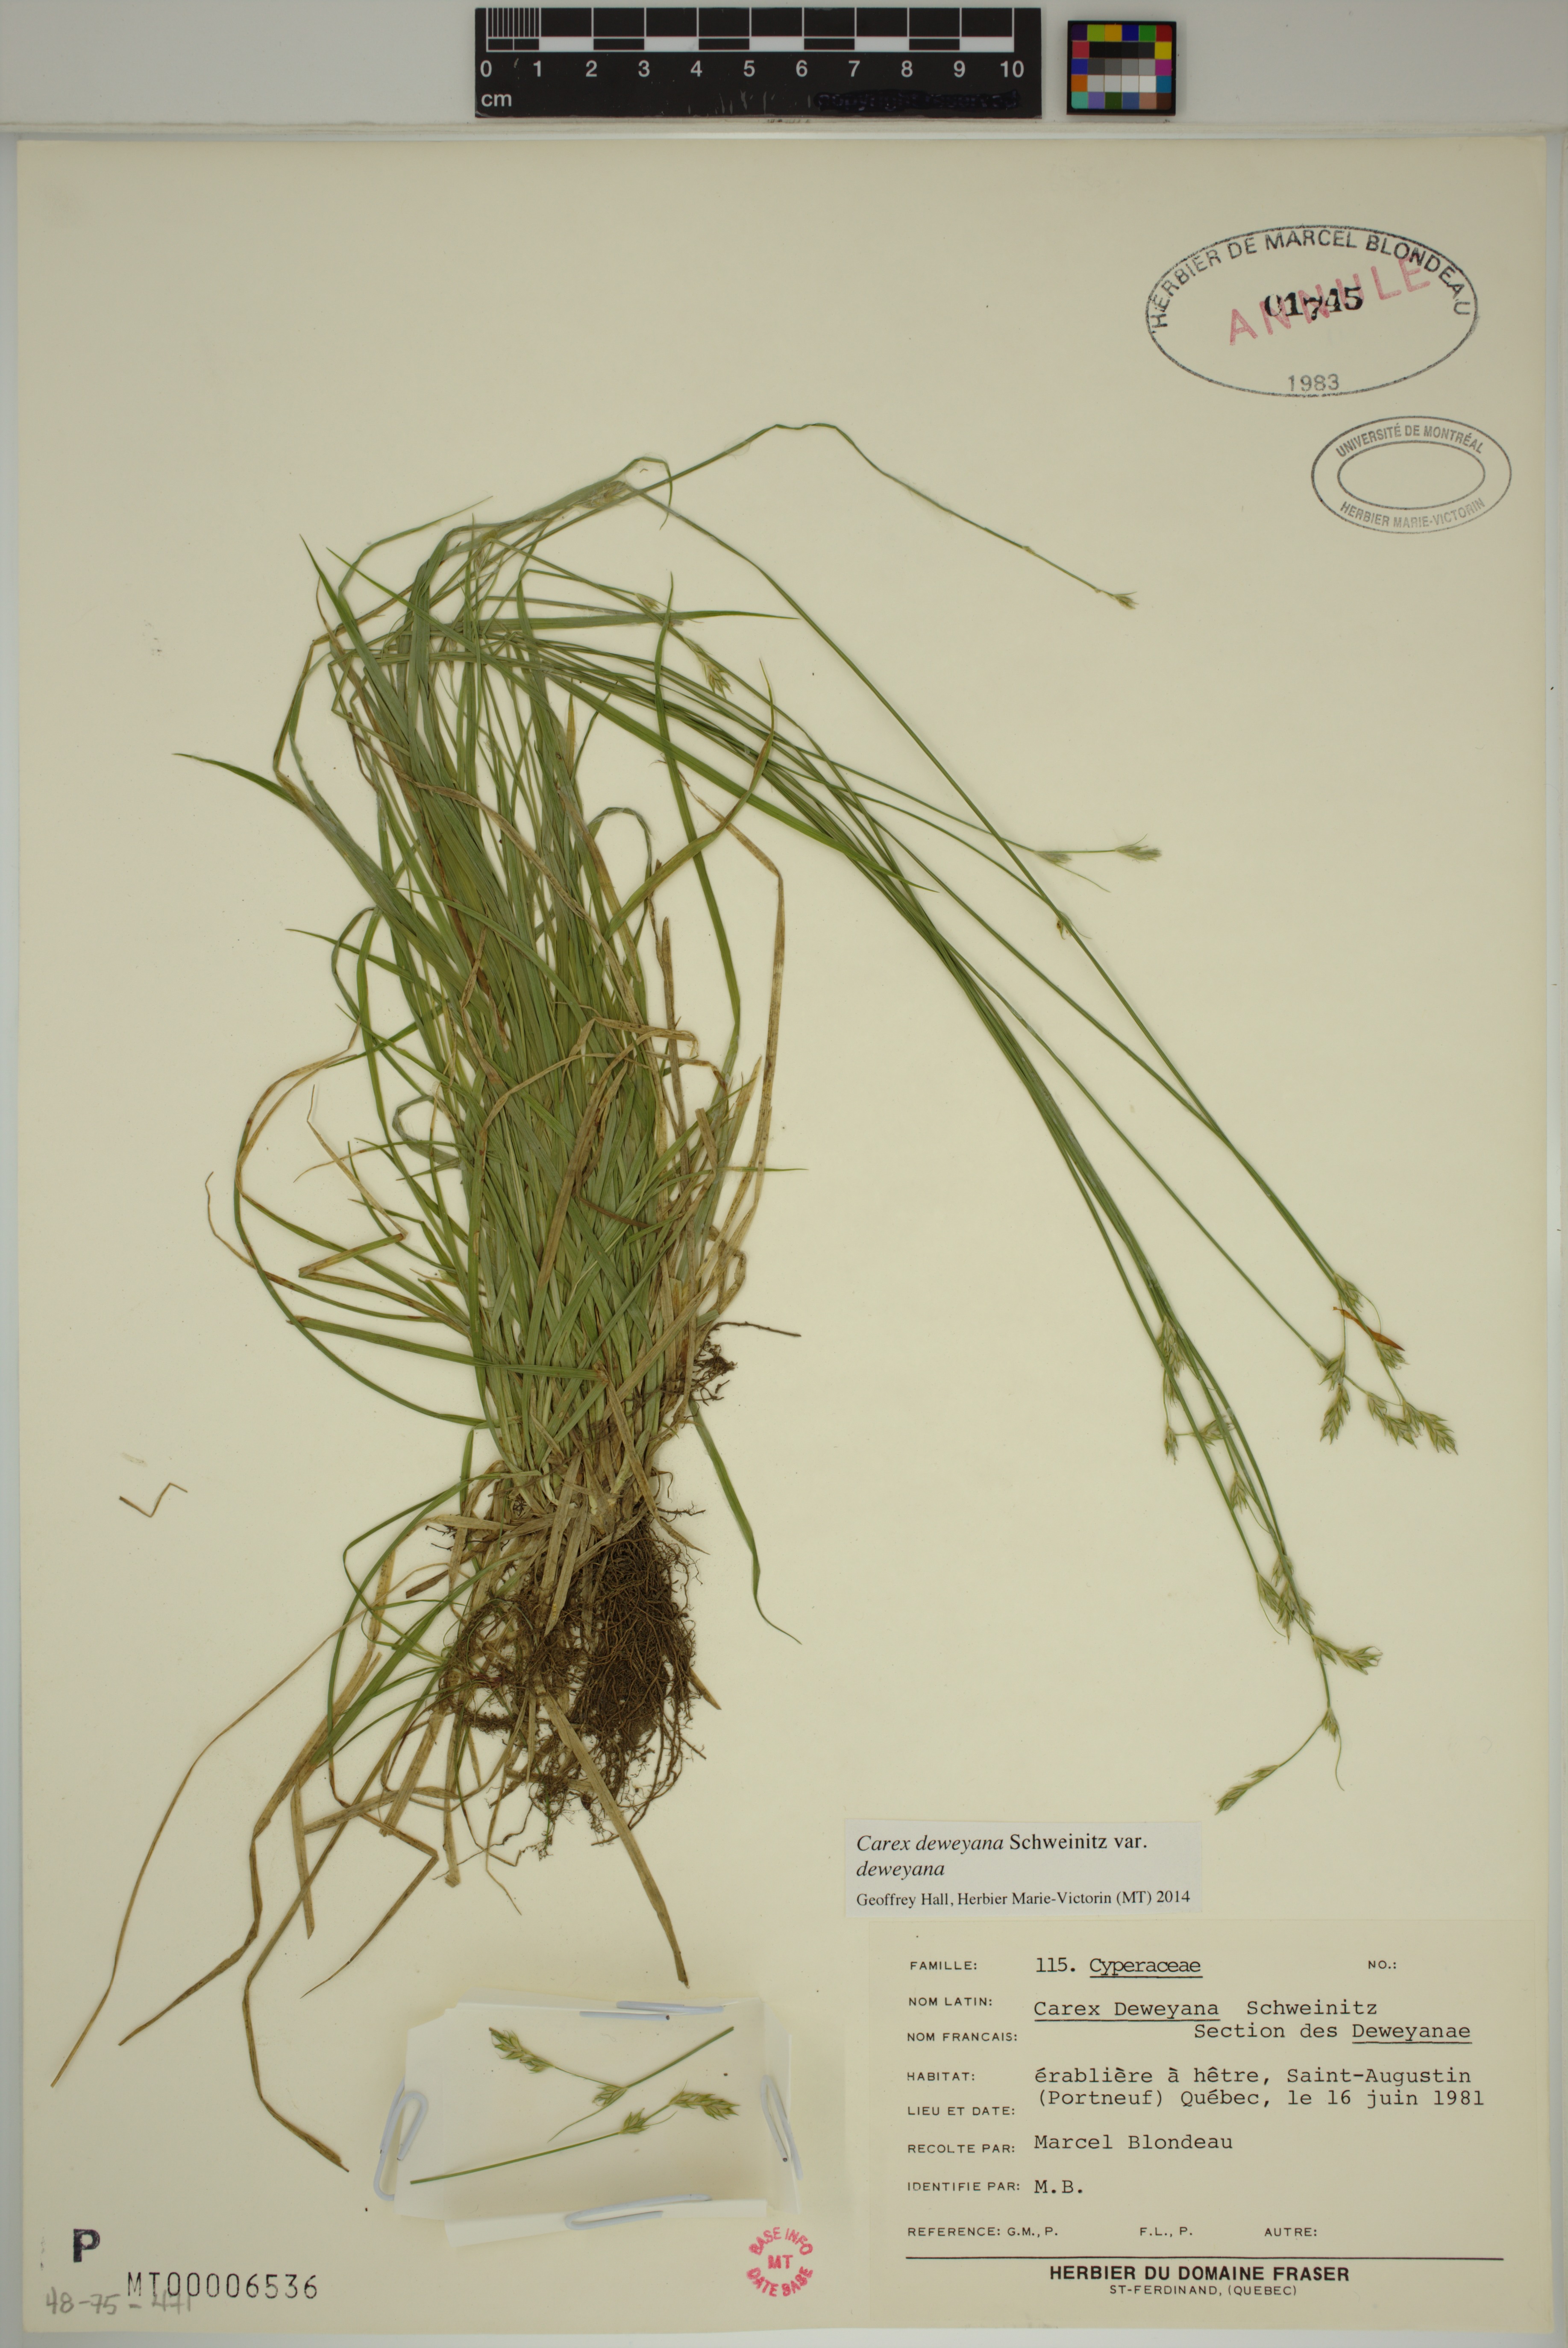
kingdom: Plantae
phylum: Tracheophyta
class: Liliopsida
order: Poales
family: Cyperaceae
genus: Carex
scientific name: Carex deweyana
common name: Dewey's sedge
